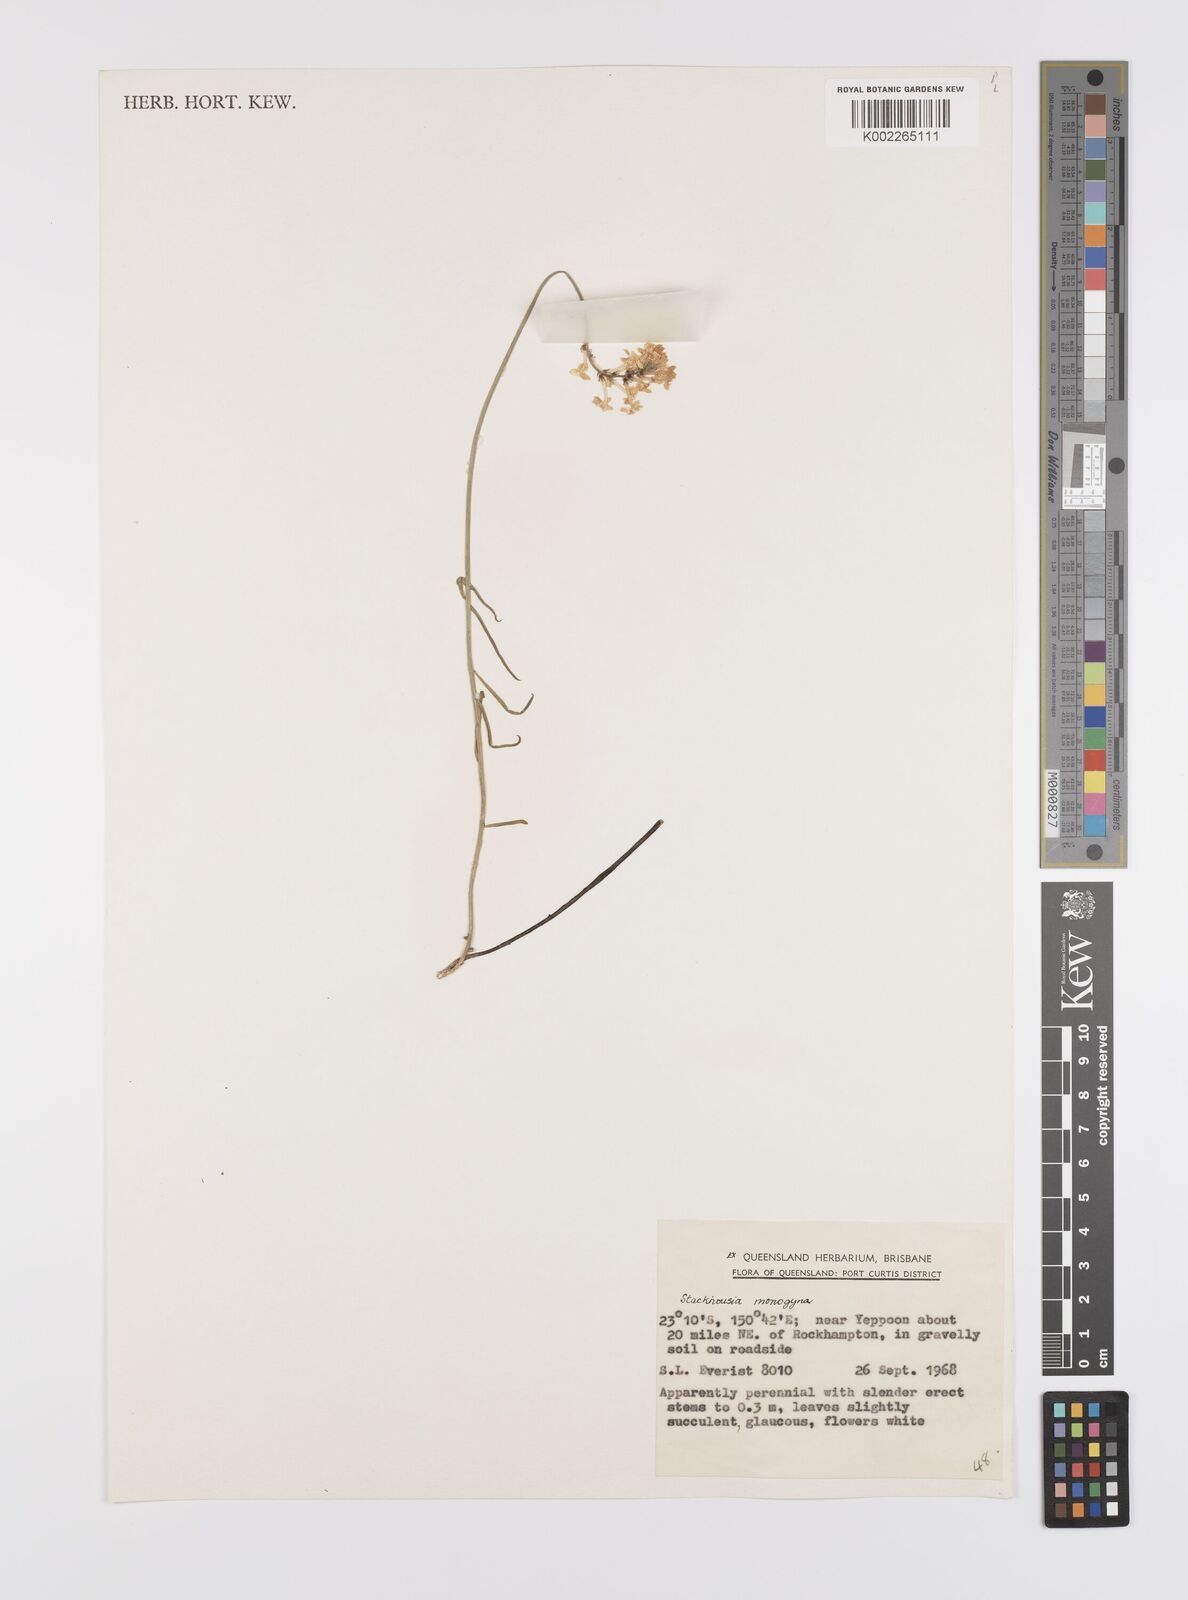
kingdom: Plantae
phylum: Tracheophyta
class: Magnoliopsida
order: Celastrales
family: Celastraceae
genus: Stackhousia
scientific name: Stackhousia monogyna
